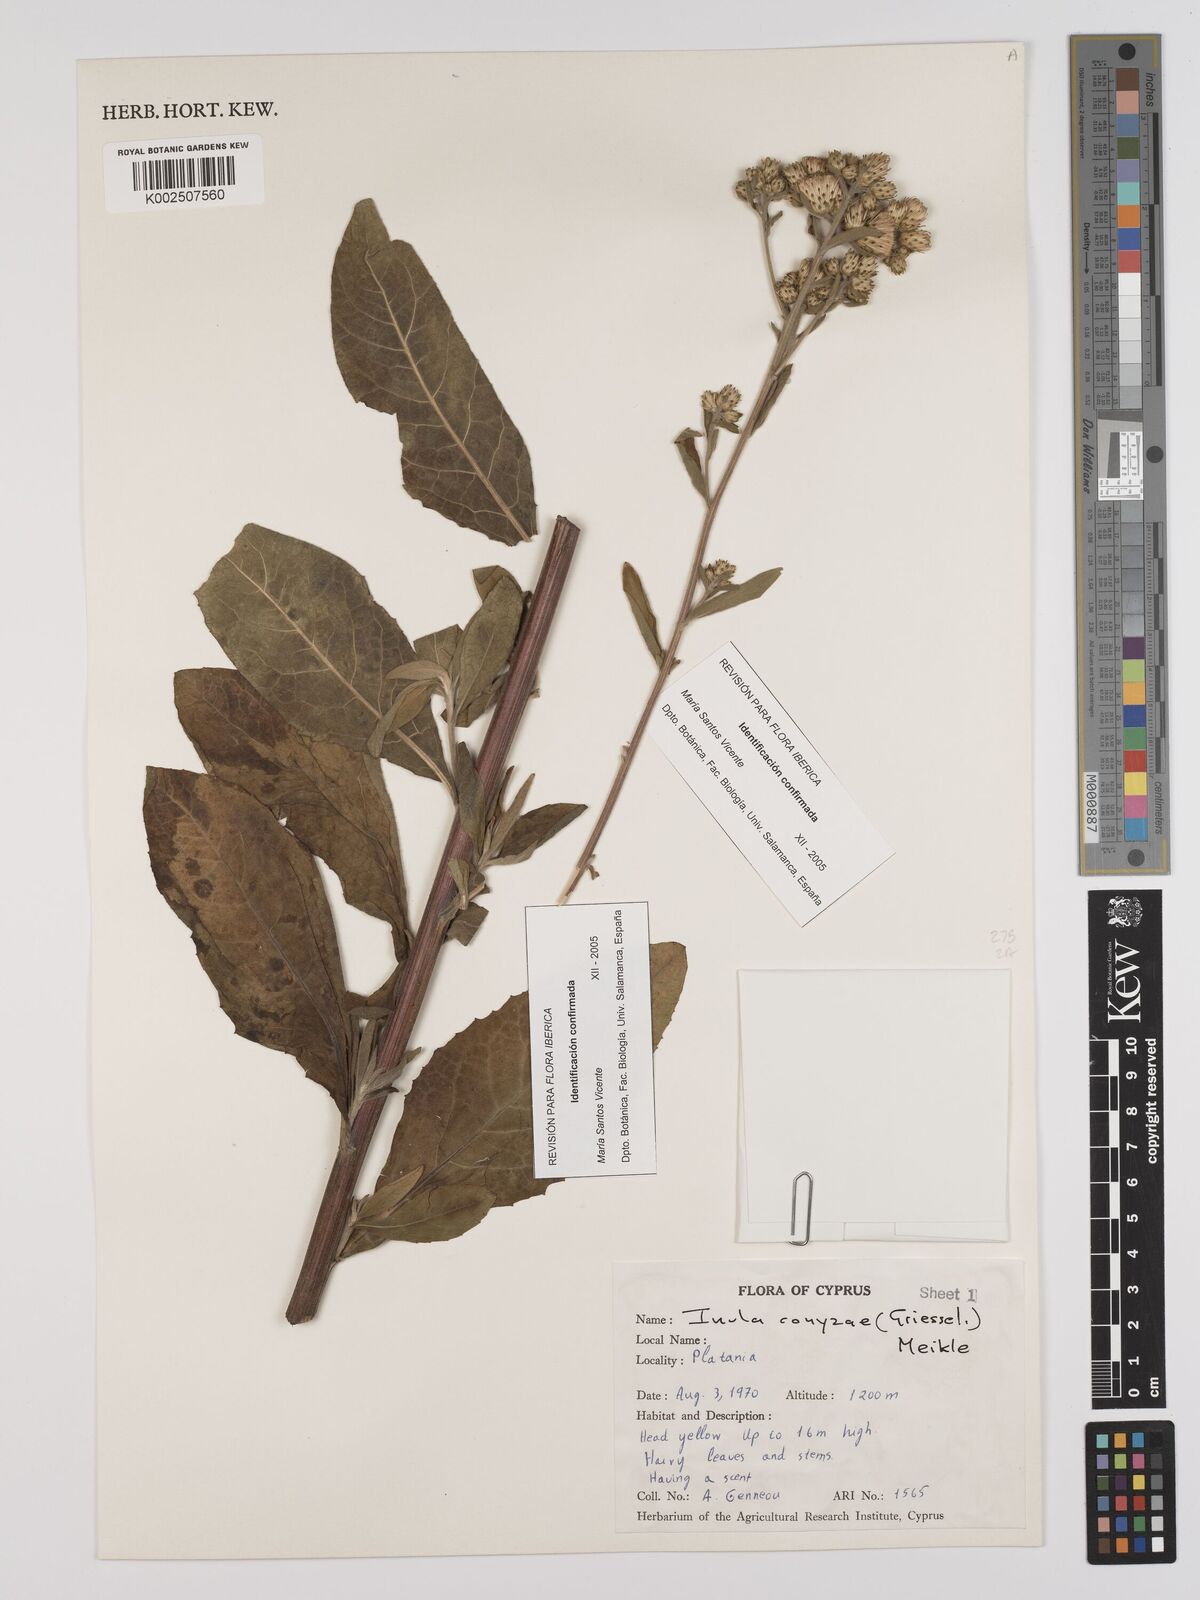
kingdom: Plantae
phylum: Tracheophyta
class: Magnoliopsida
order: Asterales
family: Asteraceae
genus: Pentanema
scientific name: Pentanema squarrosum
